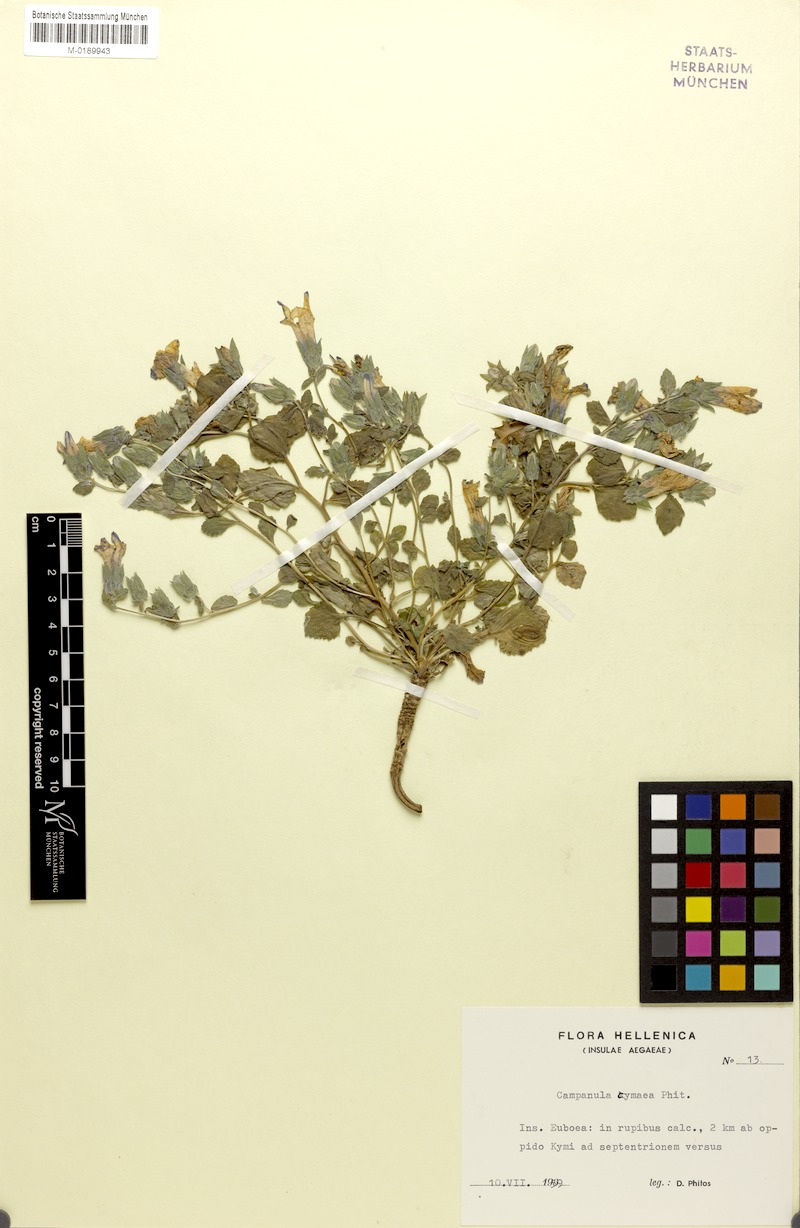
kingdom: Plantae
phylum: Tracheophyta
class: Magnoliopsida
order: Asterales
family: Campanulaceae
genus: Campanula
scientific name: Campanula cymaea
